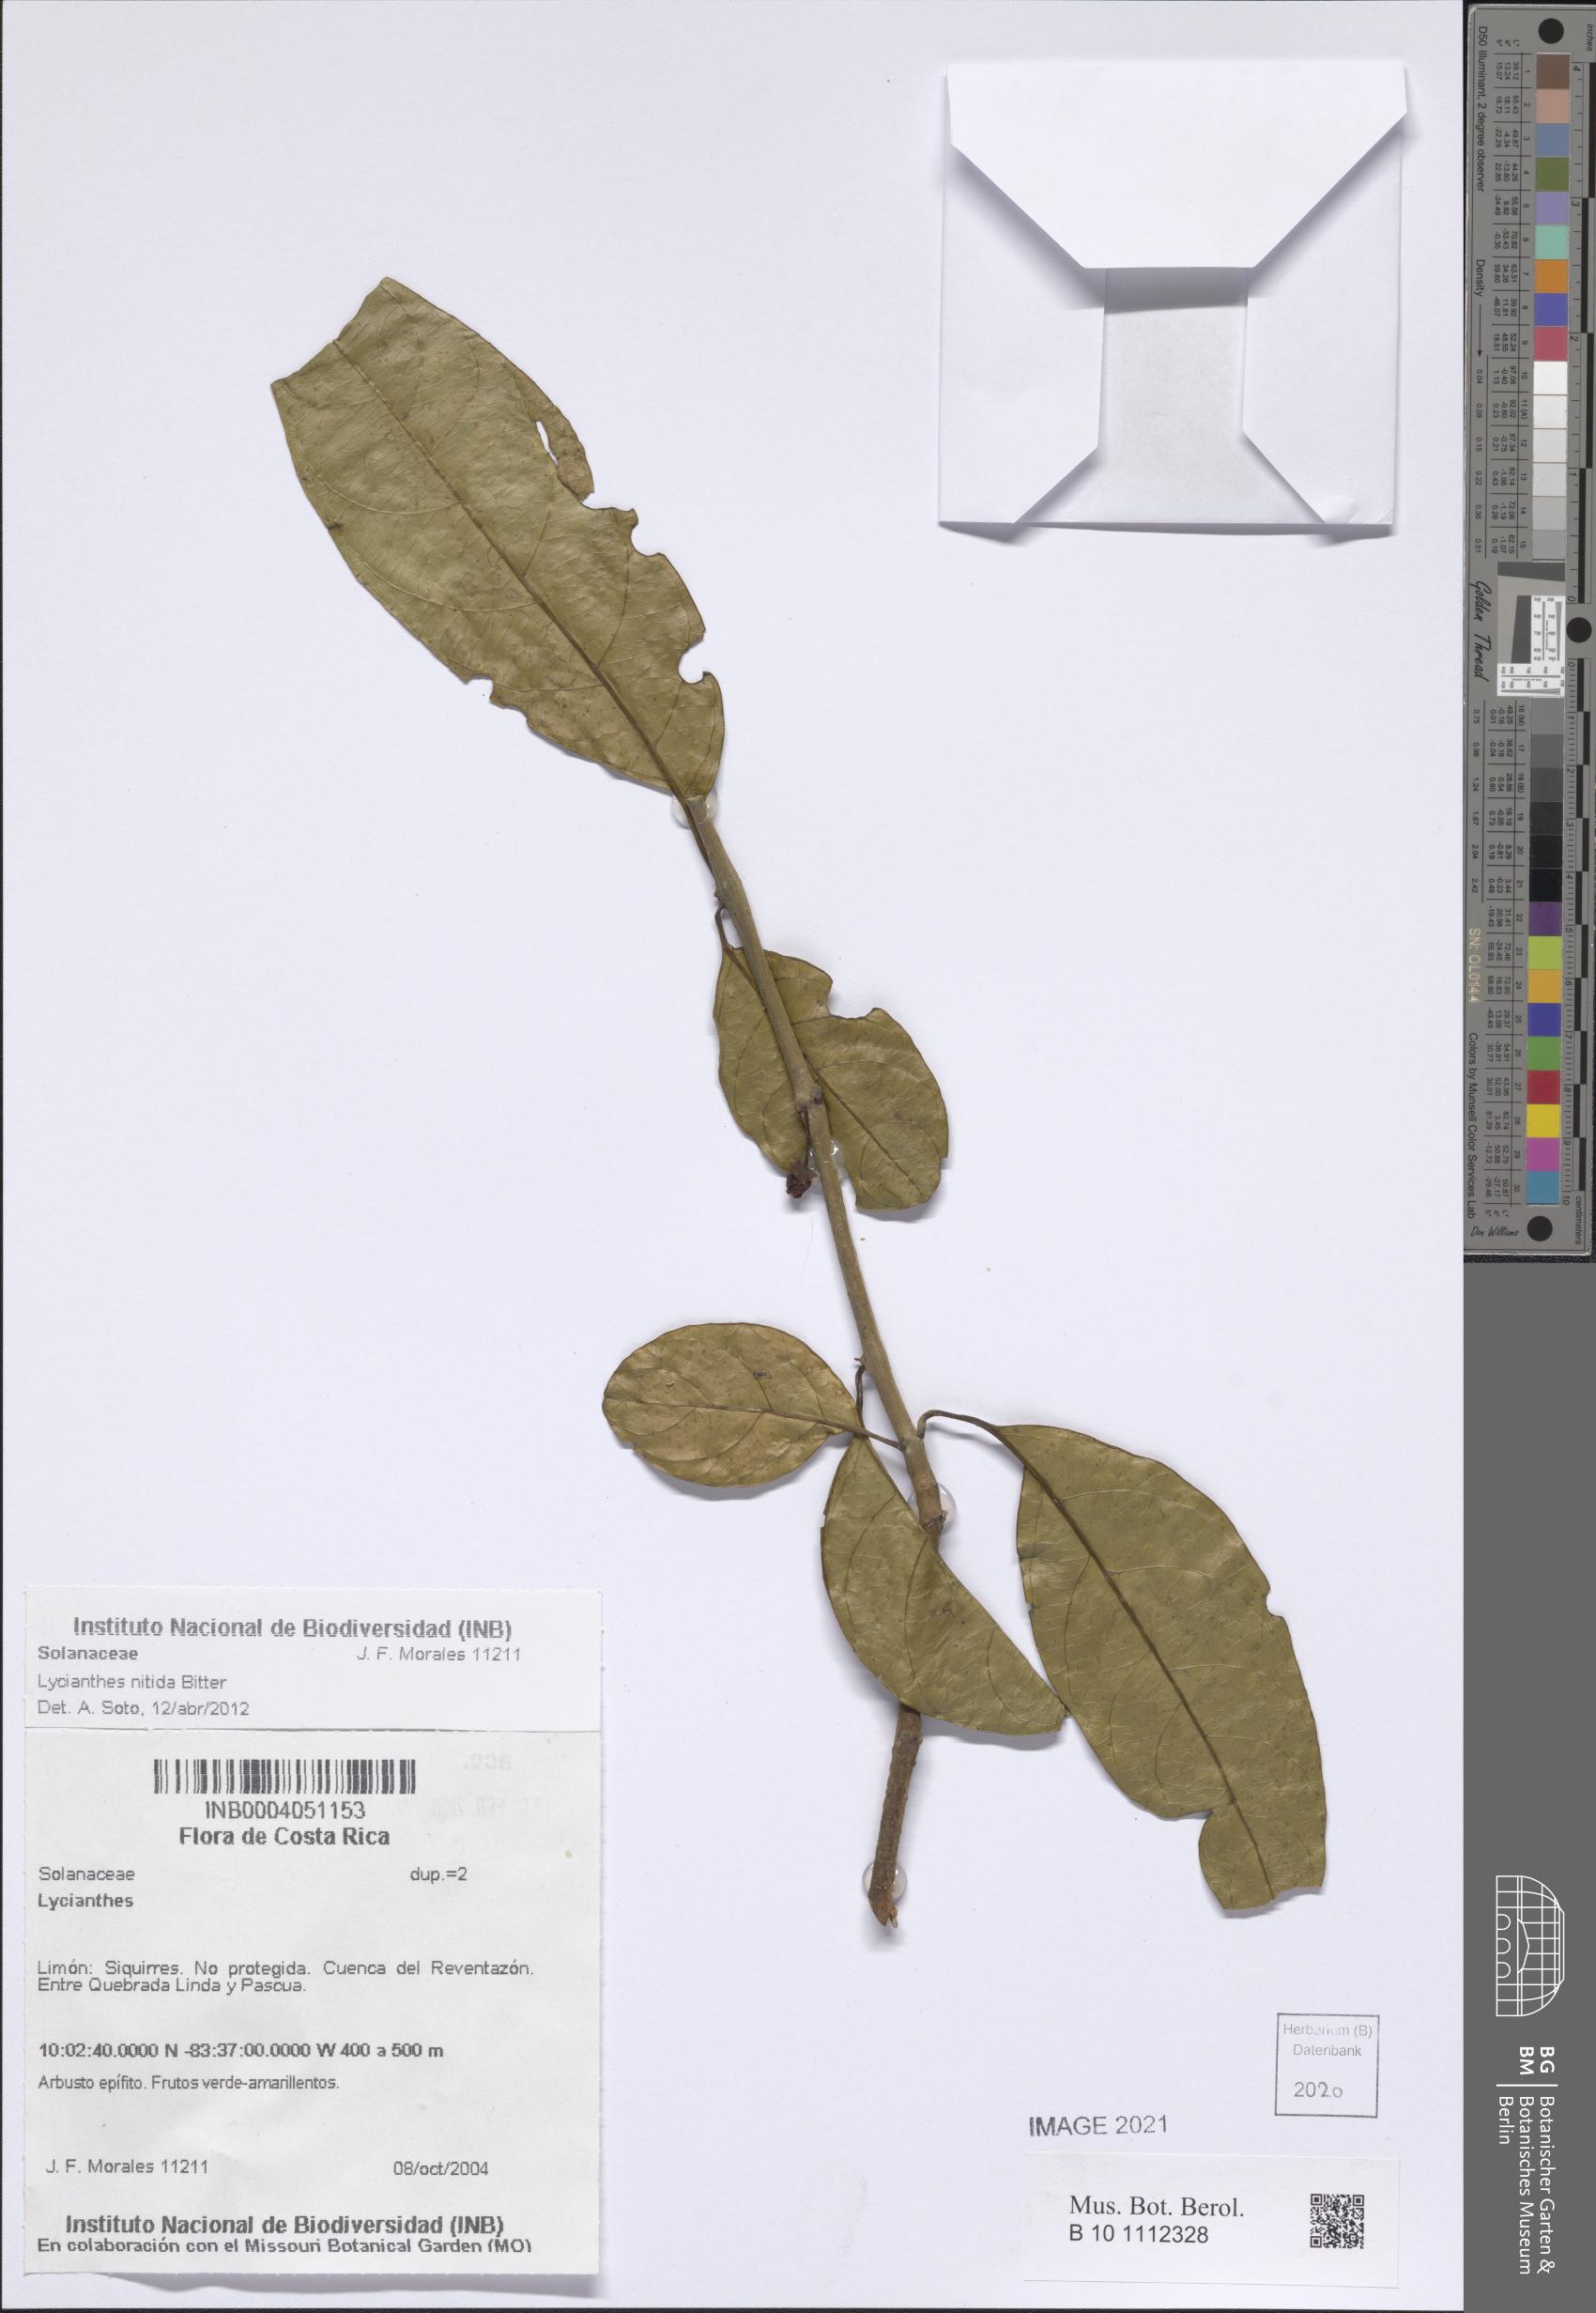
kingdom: Plantae
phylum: Tracheophyta
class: Magnoliopsida
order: Solanales
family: Solanaceae
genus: Lycianthes
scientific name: Lycianthes nitida
